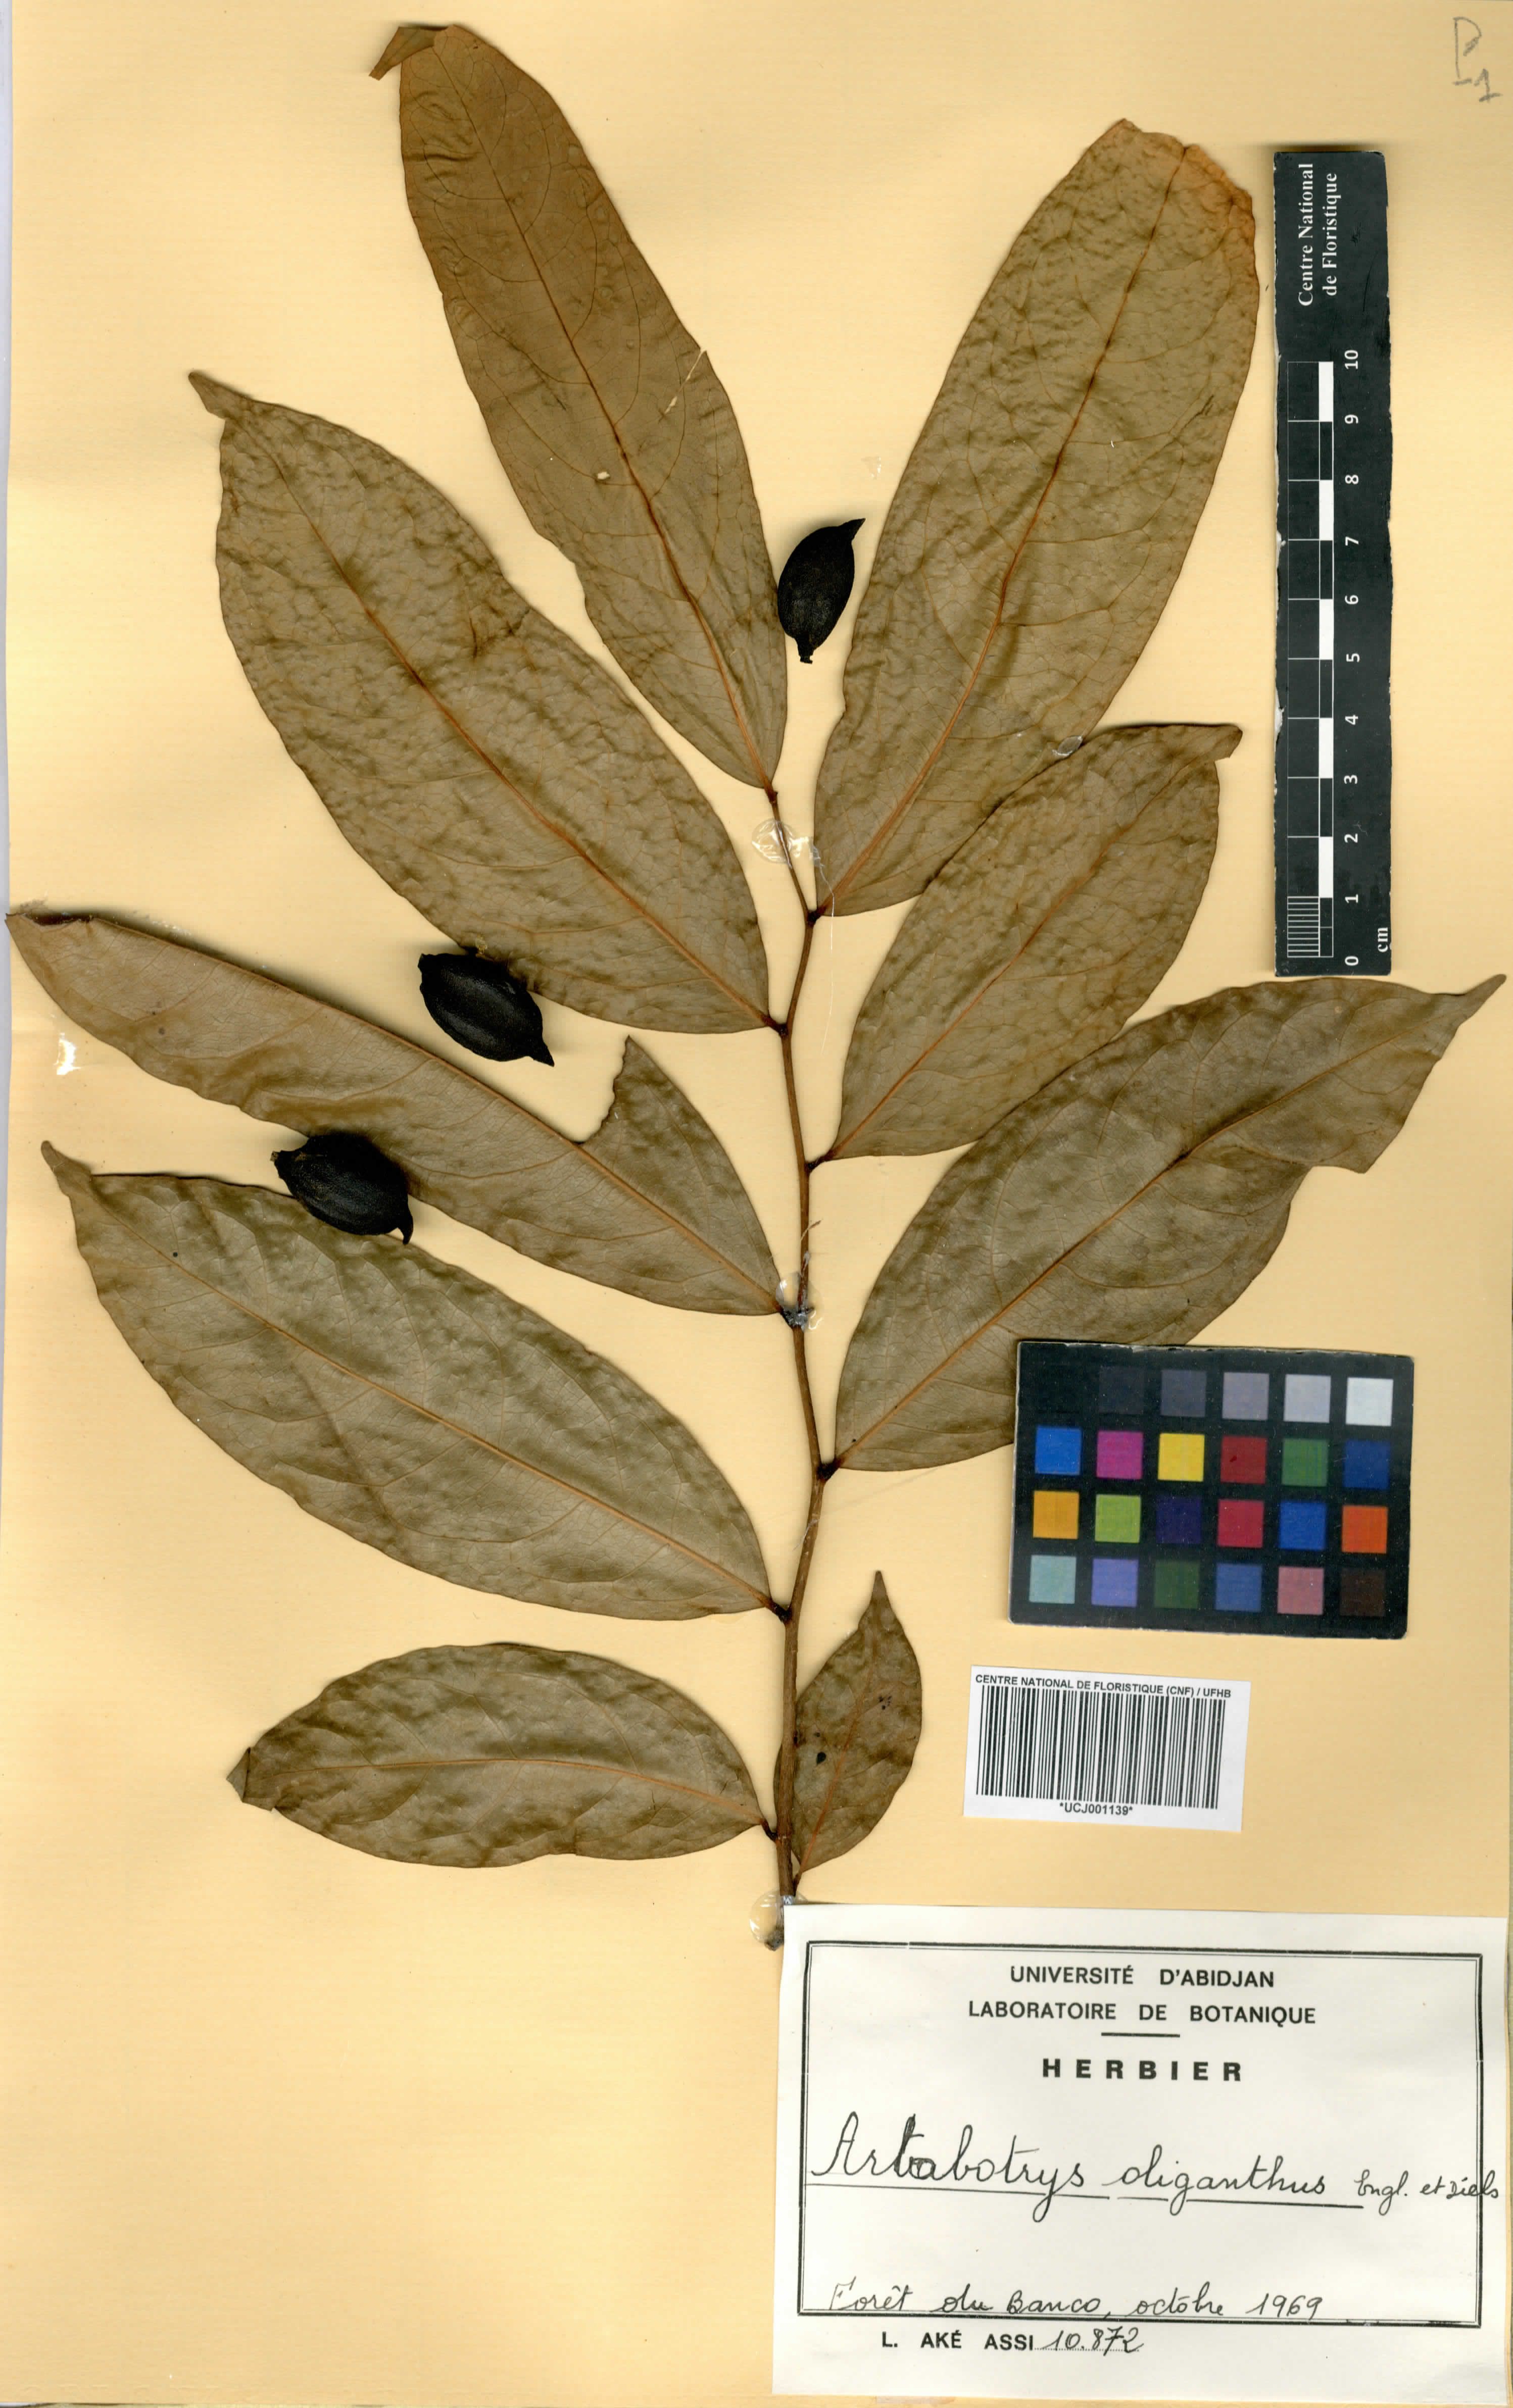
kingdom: Plantae
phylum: Tracheophyta
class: Magnoliopsida
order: Magnoliales
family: Annonaceae
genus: Artabotrys
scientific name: Artabotrys oliganthus
